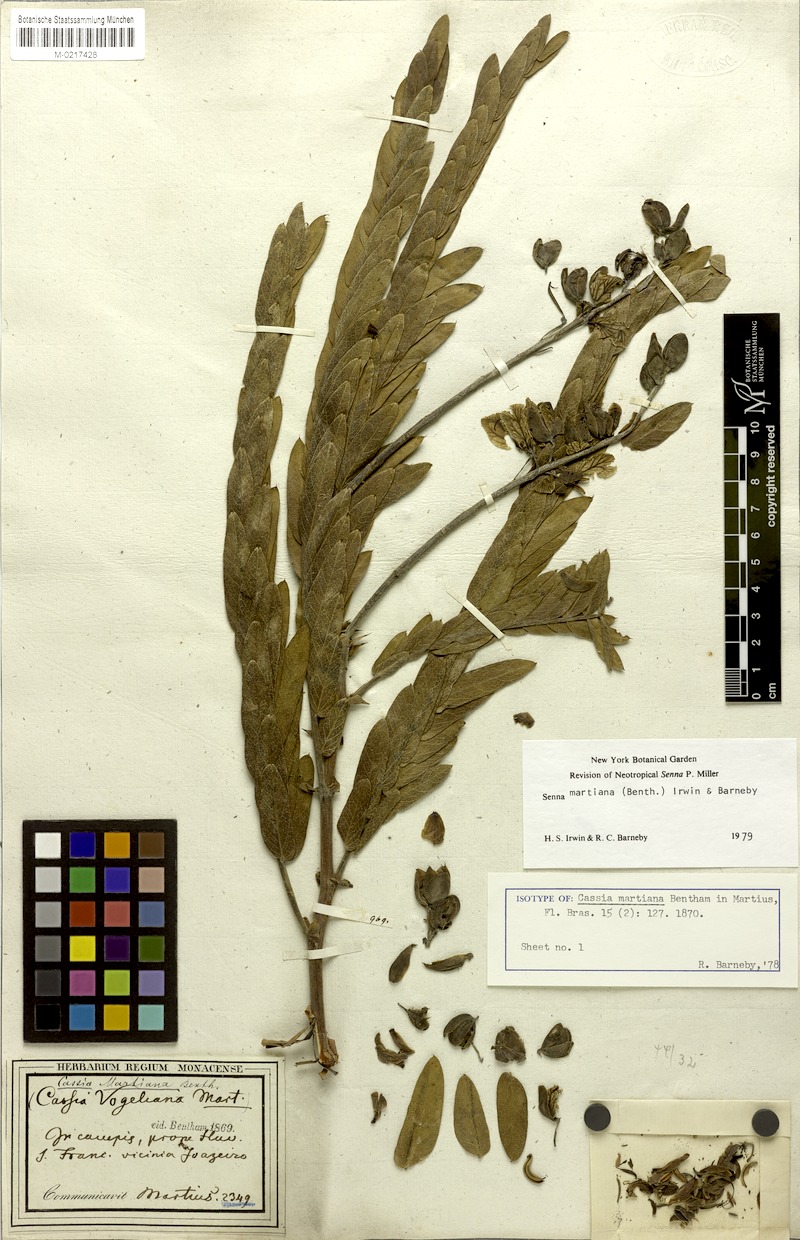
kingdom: Plantae
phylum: Tracheophyta
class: Magnoliopsida
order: Fabales
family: Fabaceae
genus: Senna
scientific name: Senna martiana
